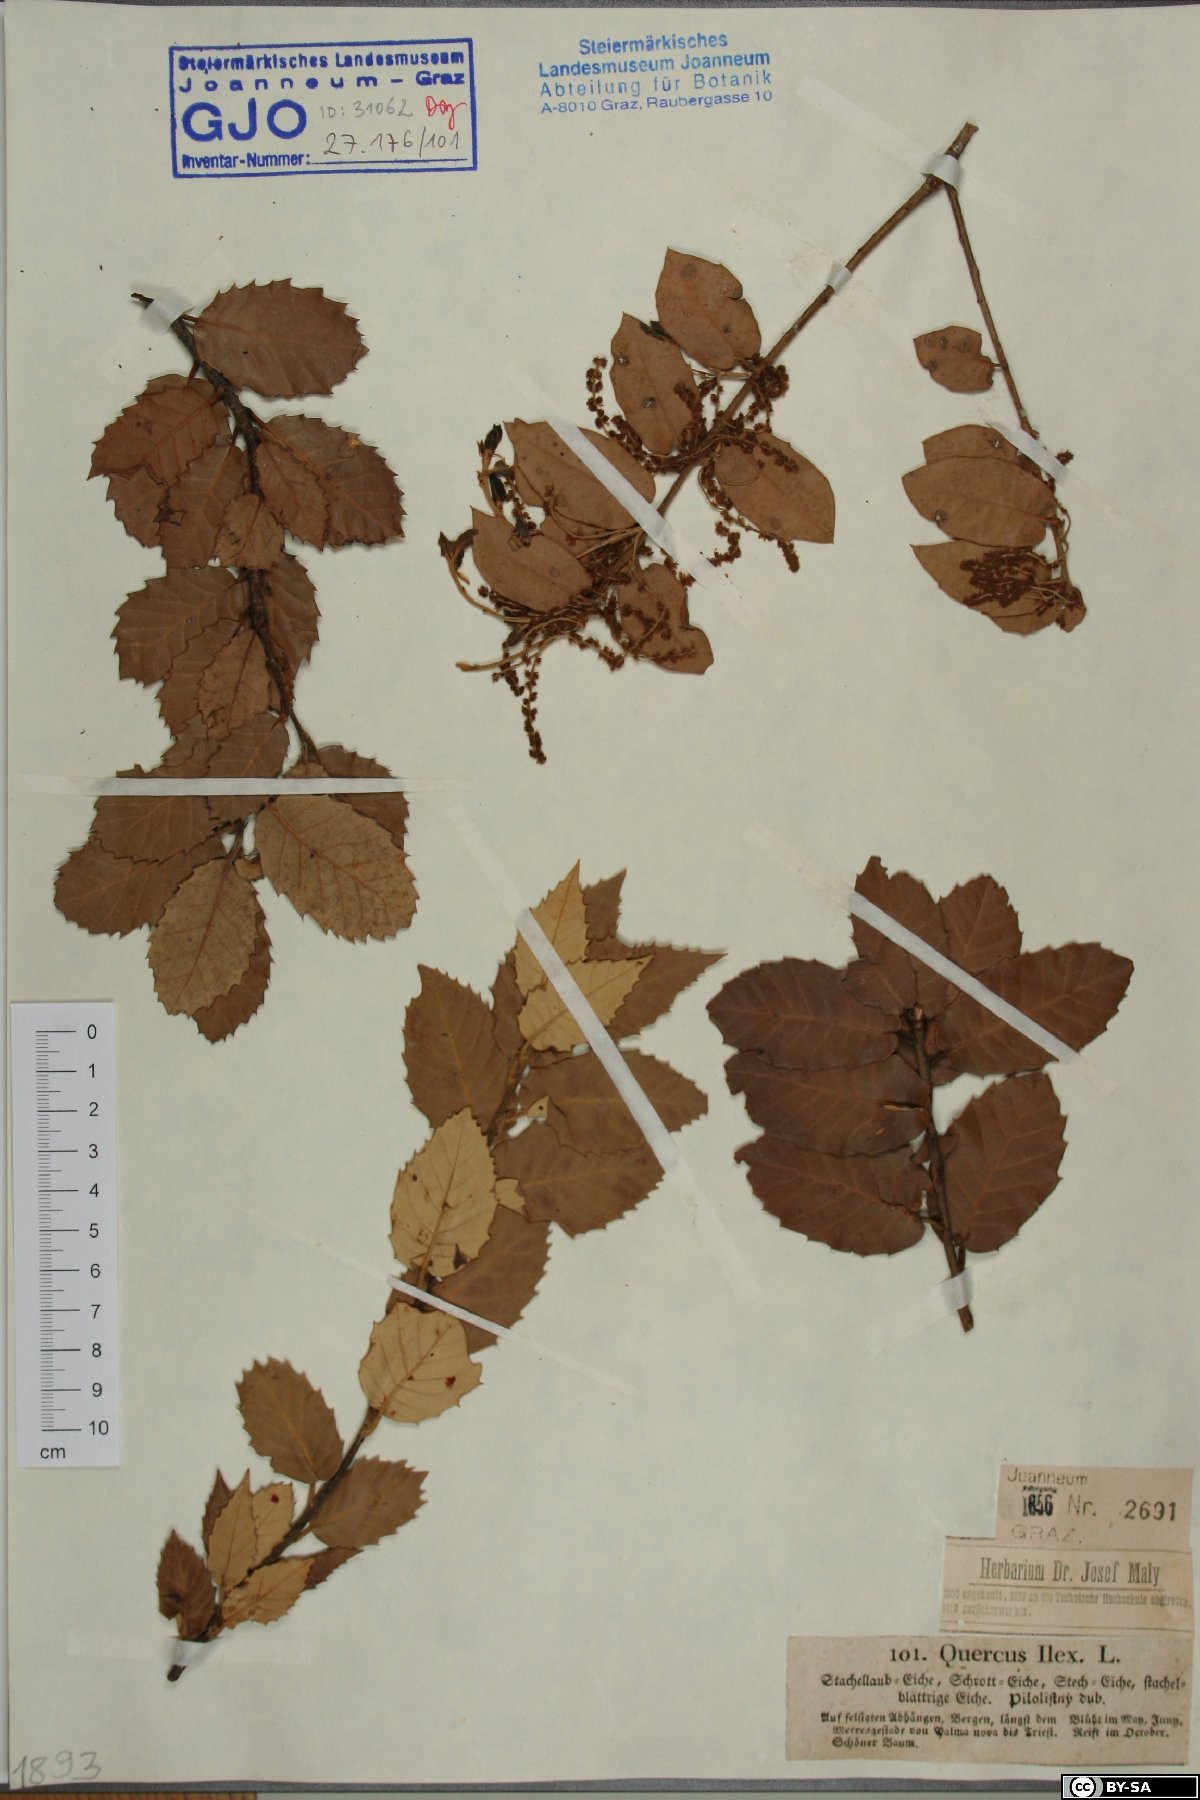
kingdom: Plantae
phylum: Tracheophyta
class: Magnoliopsida
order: Fagales
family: Fagaceae
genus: Quercus
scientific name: Quercus ilex
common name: Evergreen oak
